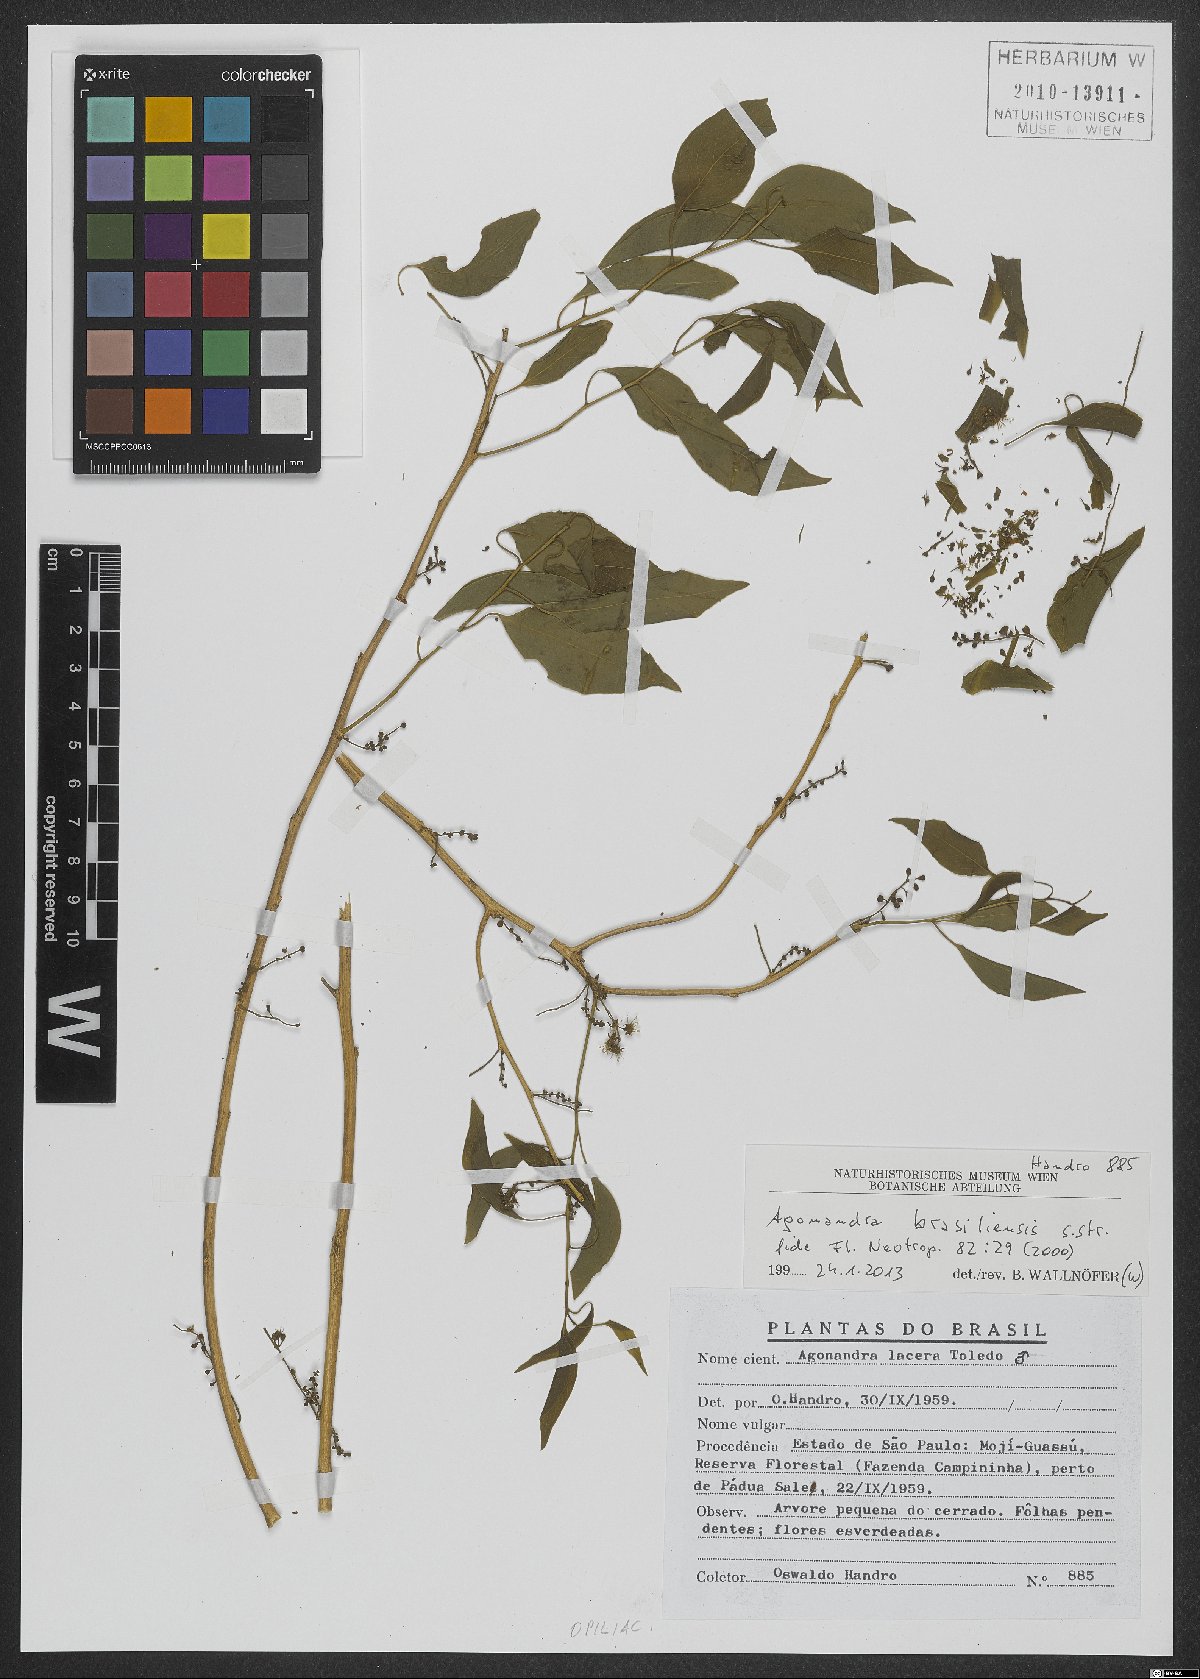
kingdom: Plantae
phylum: Tracheophyta
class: Magnoliopsida
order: Santalales
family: Opiliaceae
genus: Agonandra
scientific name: Agonandra brasiliensis
